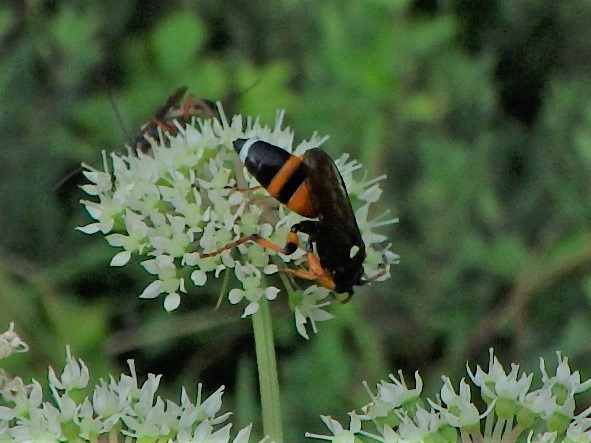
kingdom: Animalia
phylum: Arthropoda
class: Insecta
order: Hymenoptera
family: Ichneumonidae
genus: Ichneumon
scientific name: Ichneumon sarcitorius
